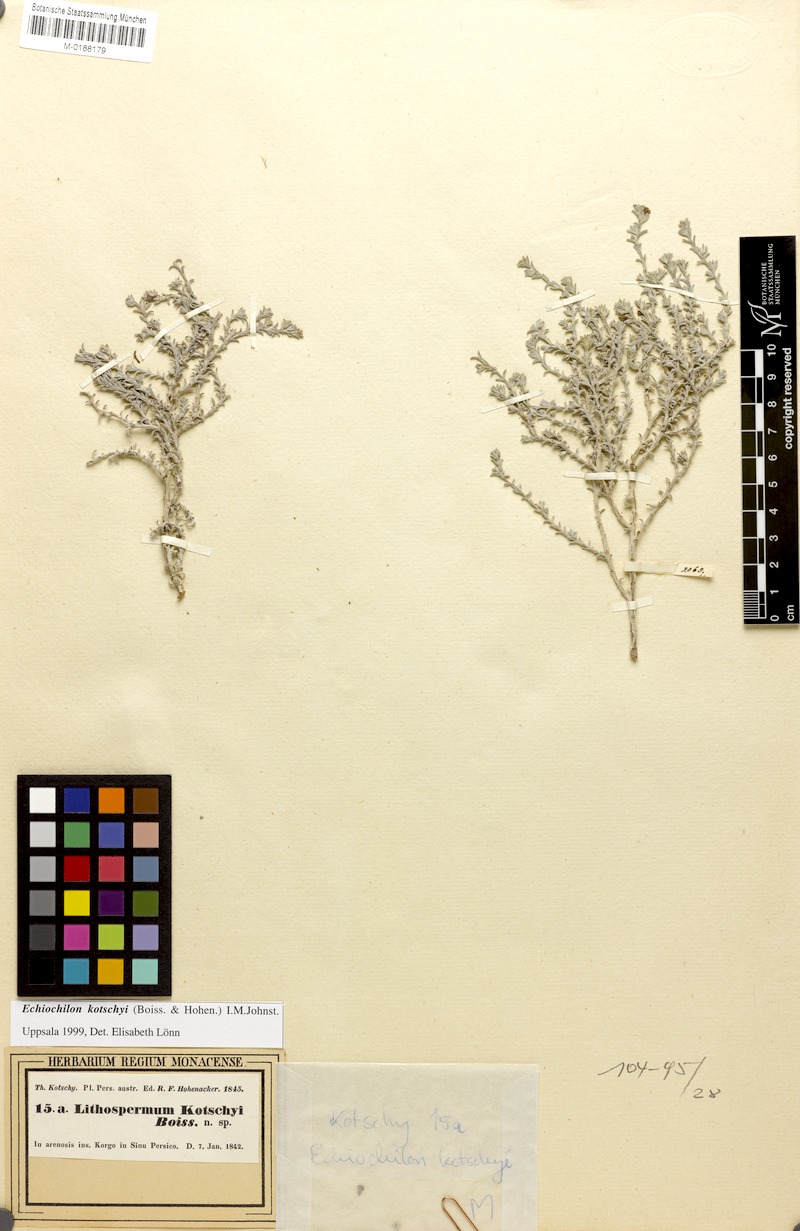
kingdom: Plantae
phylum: Tracheophyta
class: Magnoliopsida
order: Boraginales
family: Boraginaceae
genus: Echiochilon
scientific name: Echiochilon kotschyi
